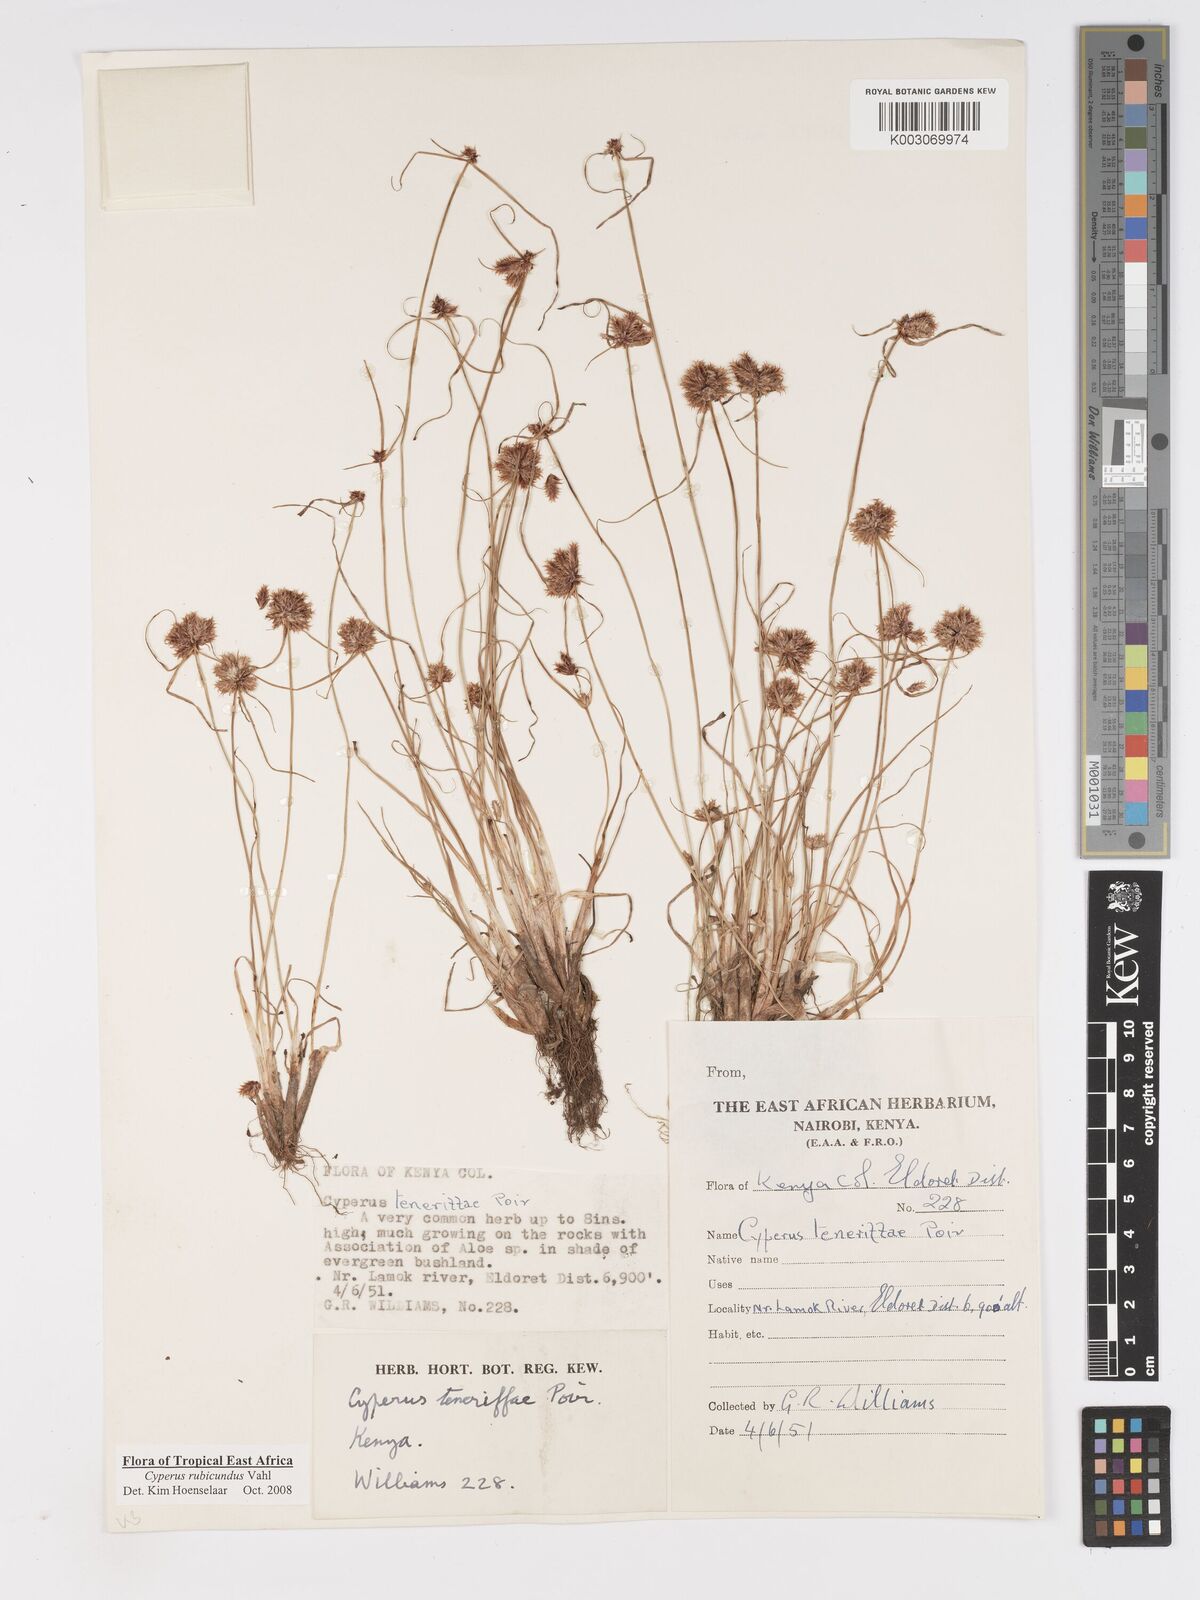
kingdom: Plantae
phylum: Tracheophyta
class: Liliopsida
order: Poales
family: Cyperaceae
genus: Cyperus
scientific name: Cyperus rubicundus
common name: Coco-grass
